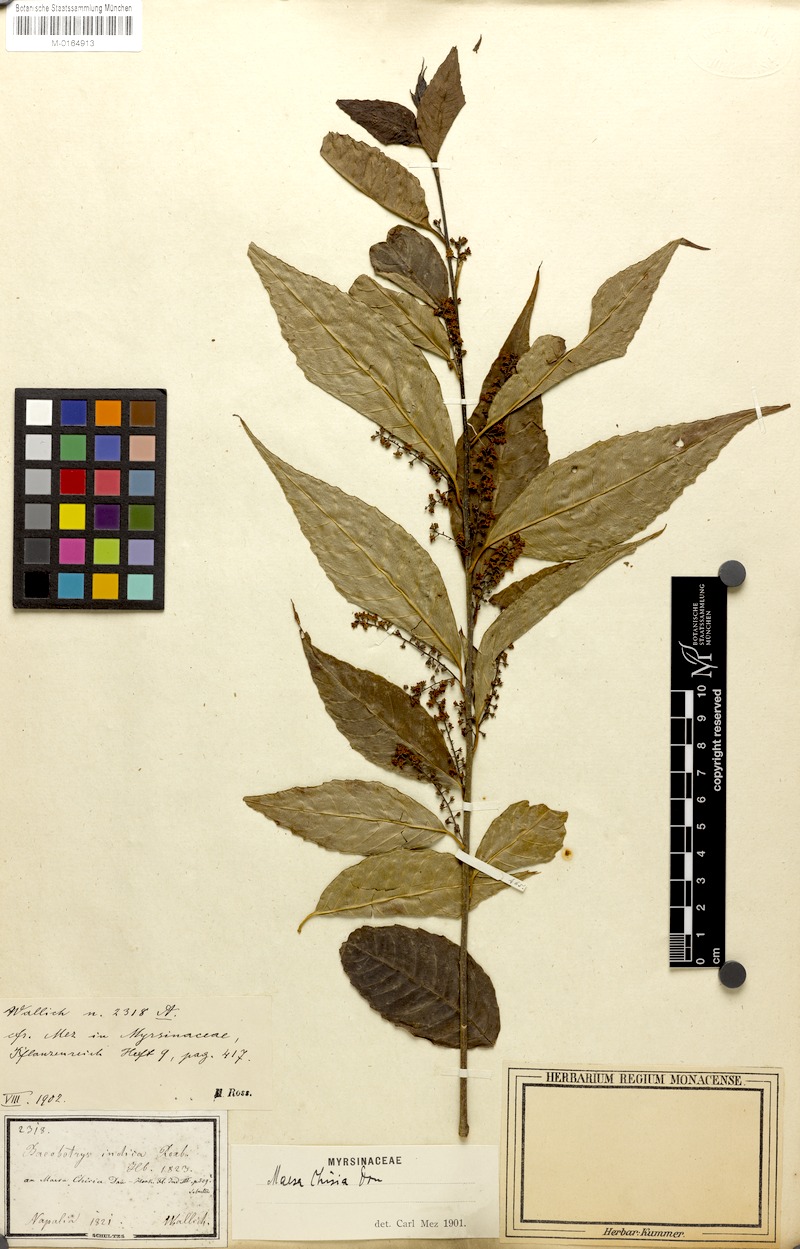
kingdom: Plantae
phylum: Tracheophyta
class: Magnoliopsida
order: Ericales
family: Primulaceae
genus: Maesa
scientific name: Maesa chisia
